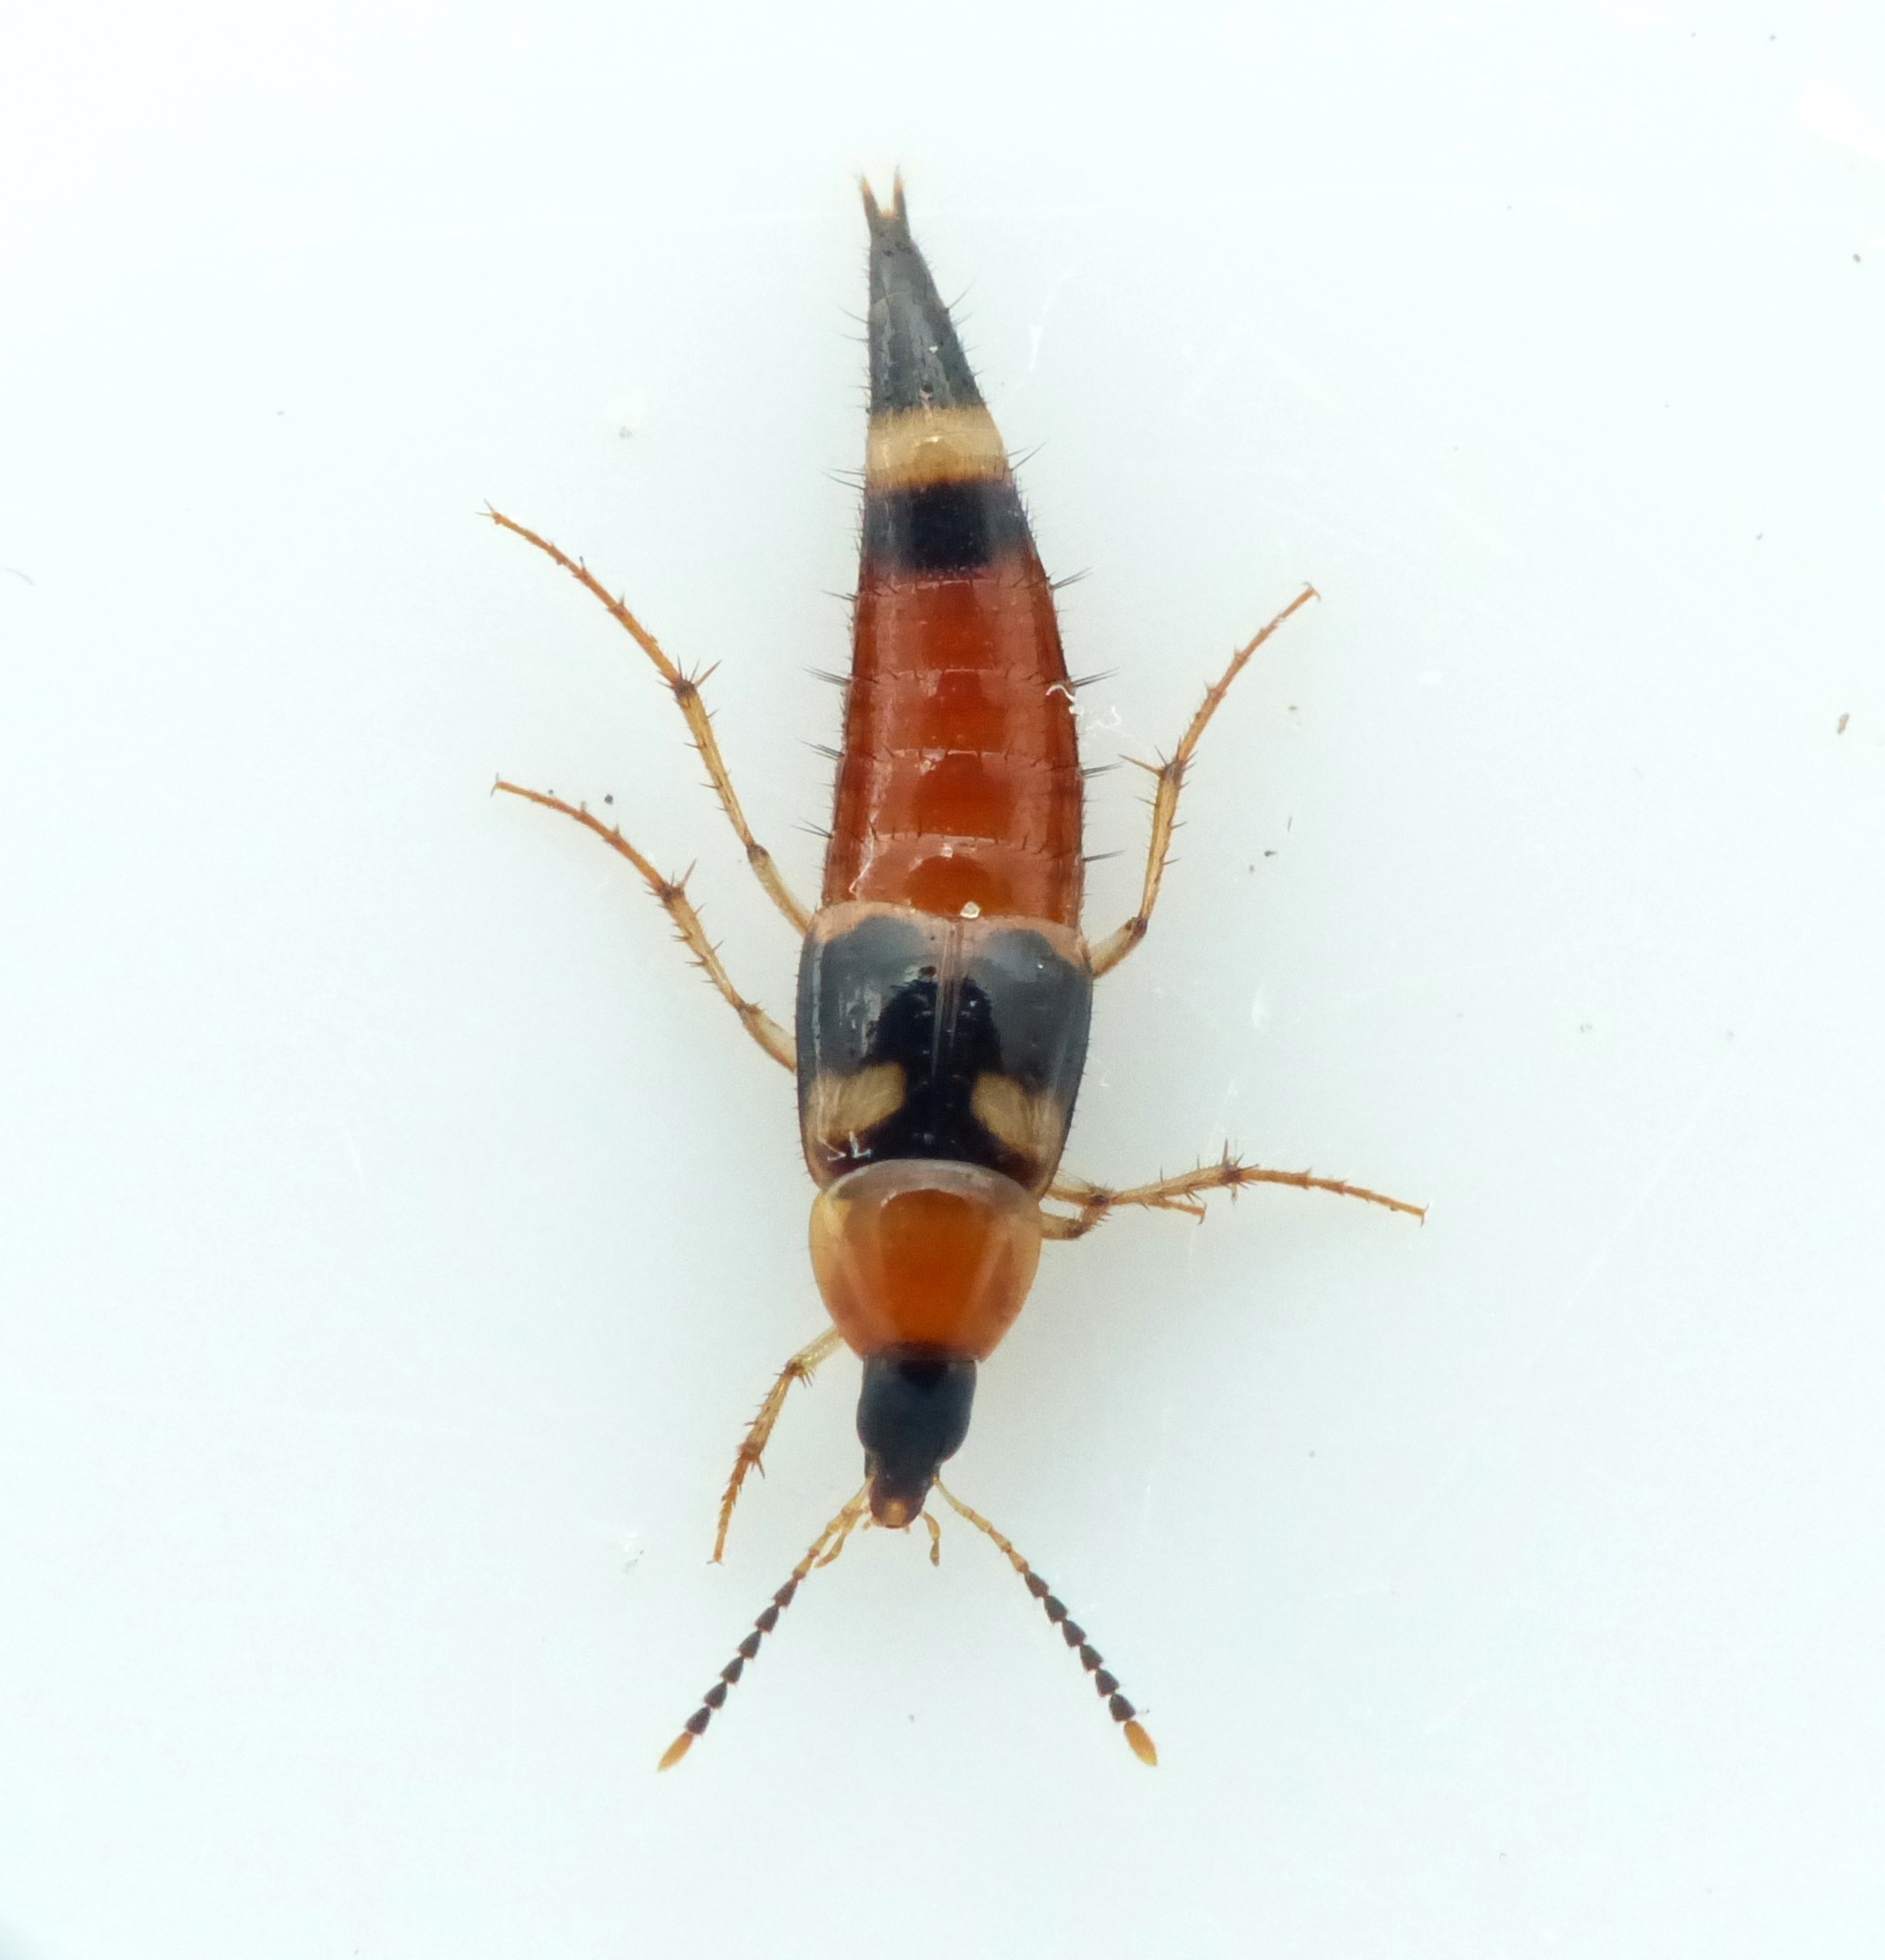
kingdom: Animalia
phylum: Arthropoda
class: Insecta
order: Coleoptera
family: Staphylinidae
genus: Bobitobus
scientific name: Bobitobus lunulatus
